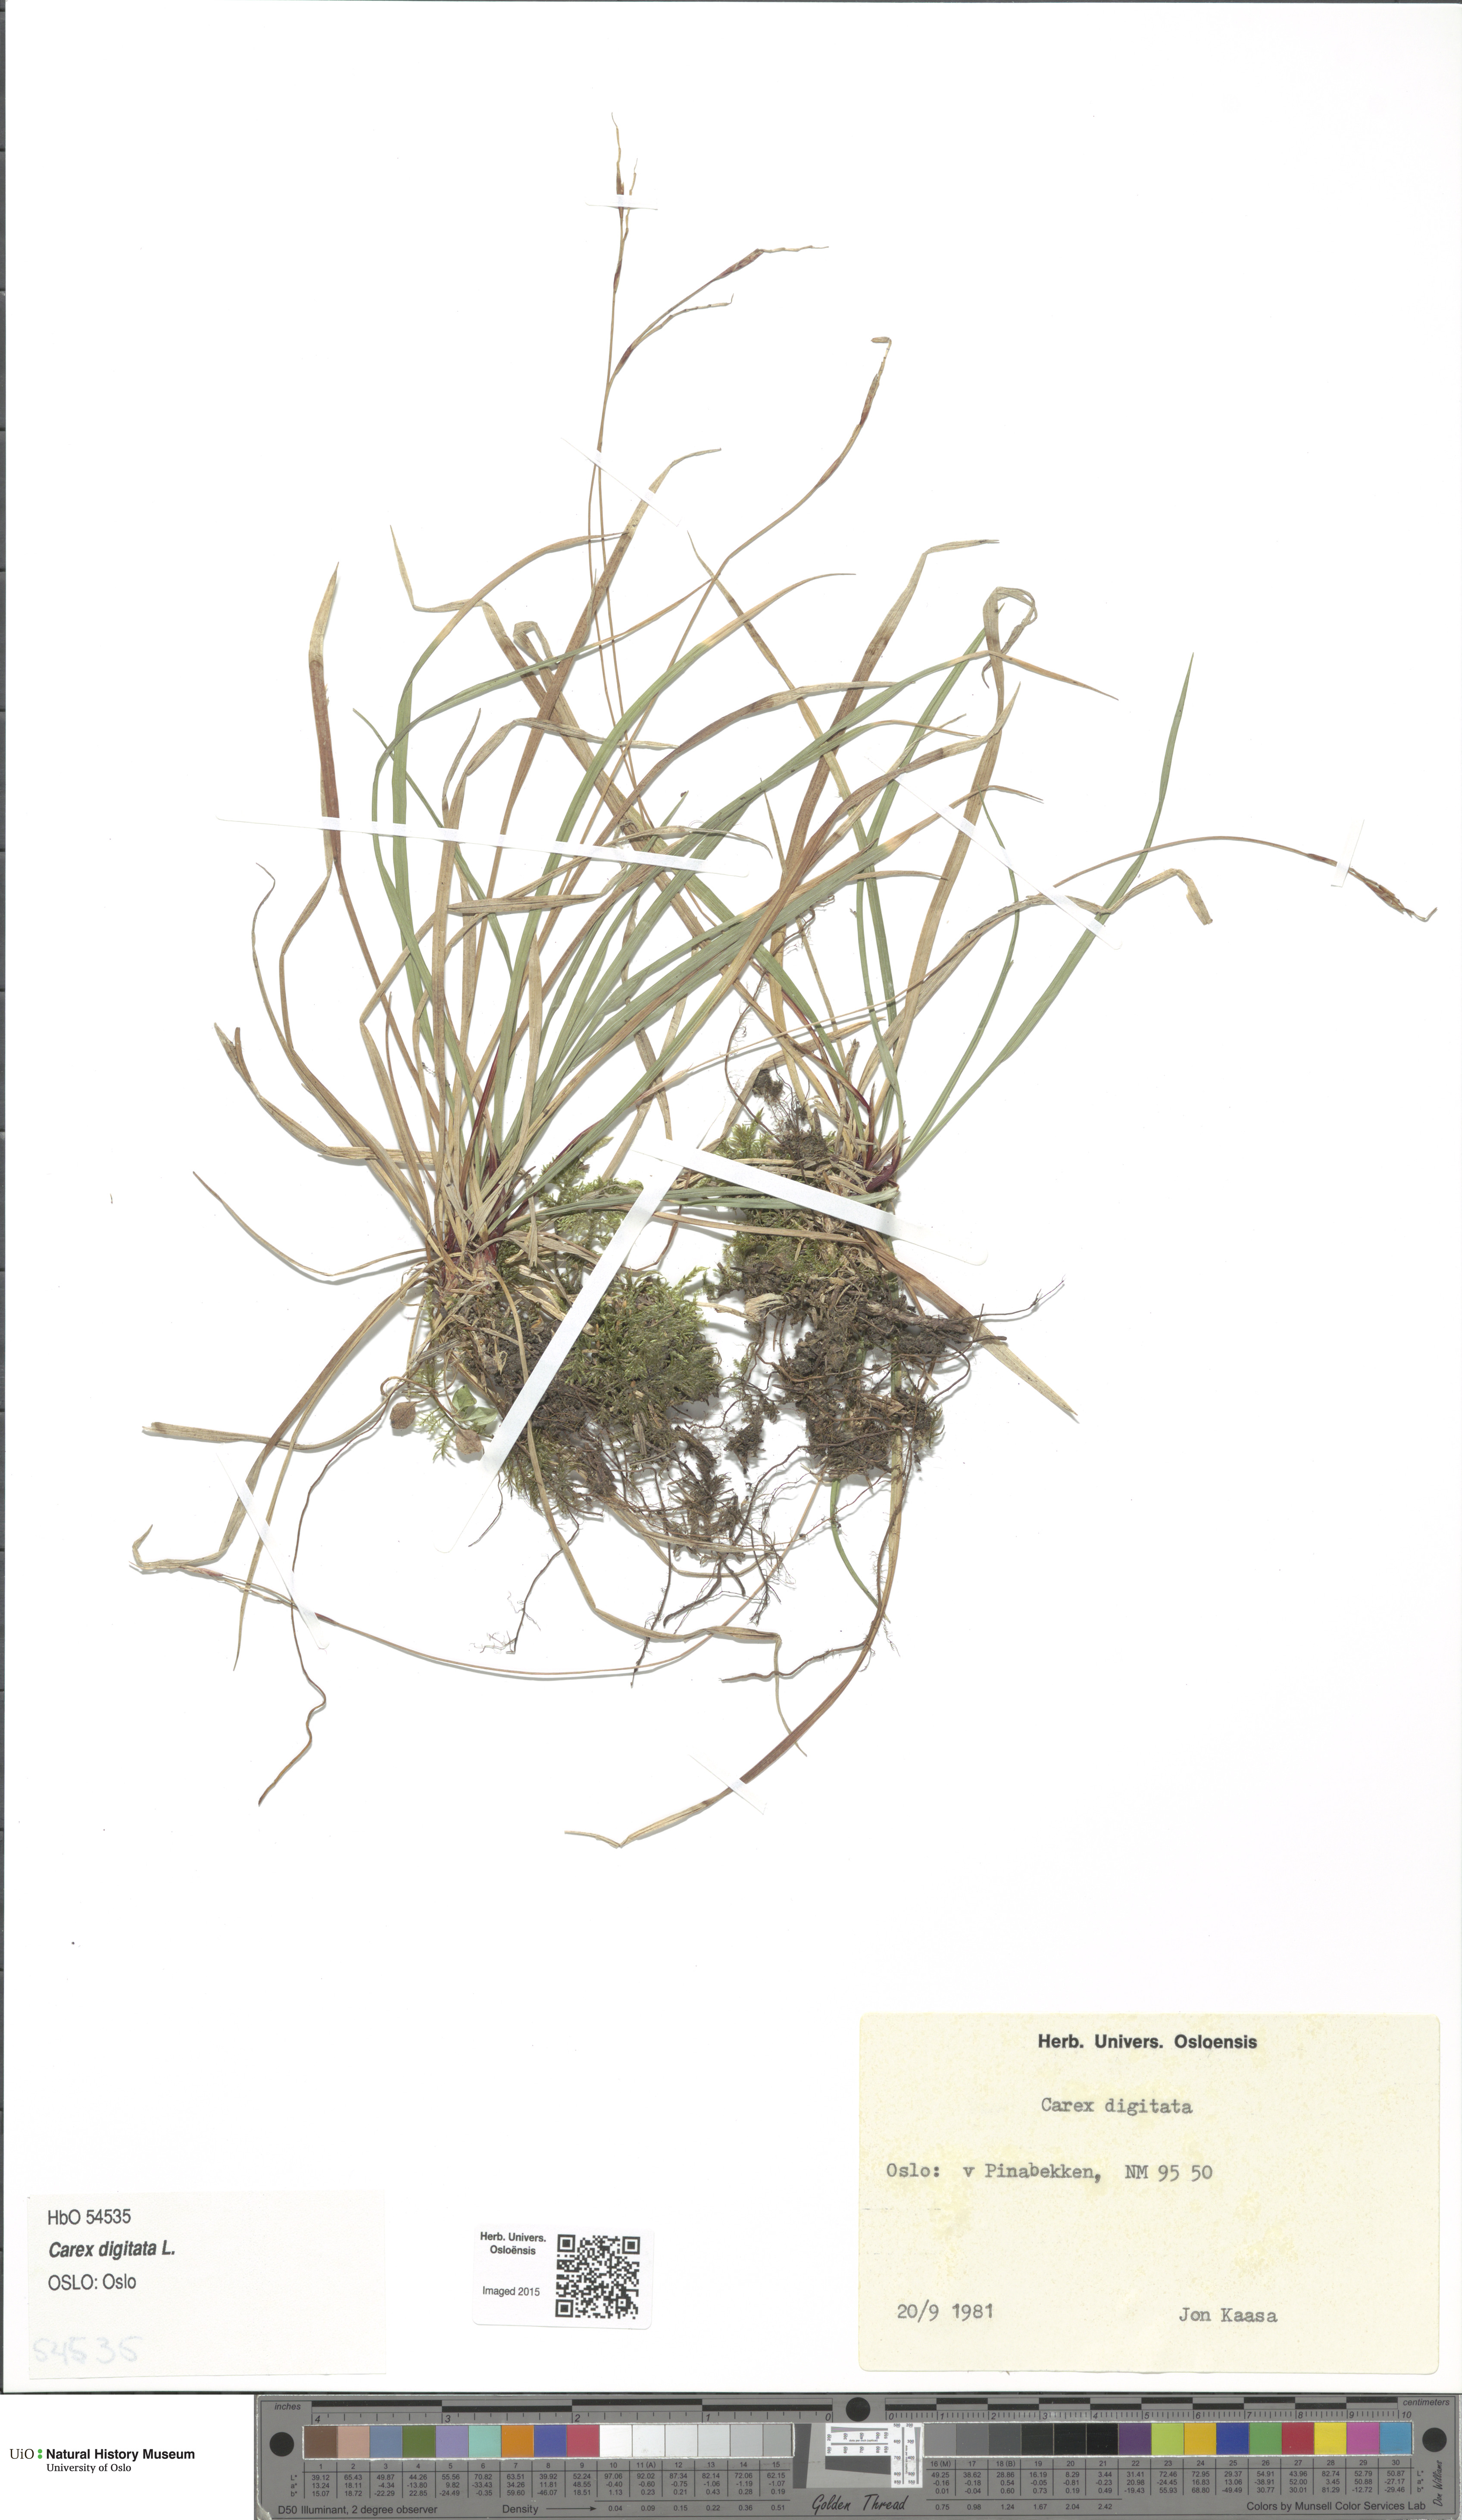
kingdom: Plantae
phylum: Tracheophyta
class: Liliopsida
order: Poales
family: Cyperaceae
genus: Carex
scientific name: Carex digitata
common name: Fingered sedge
